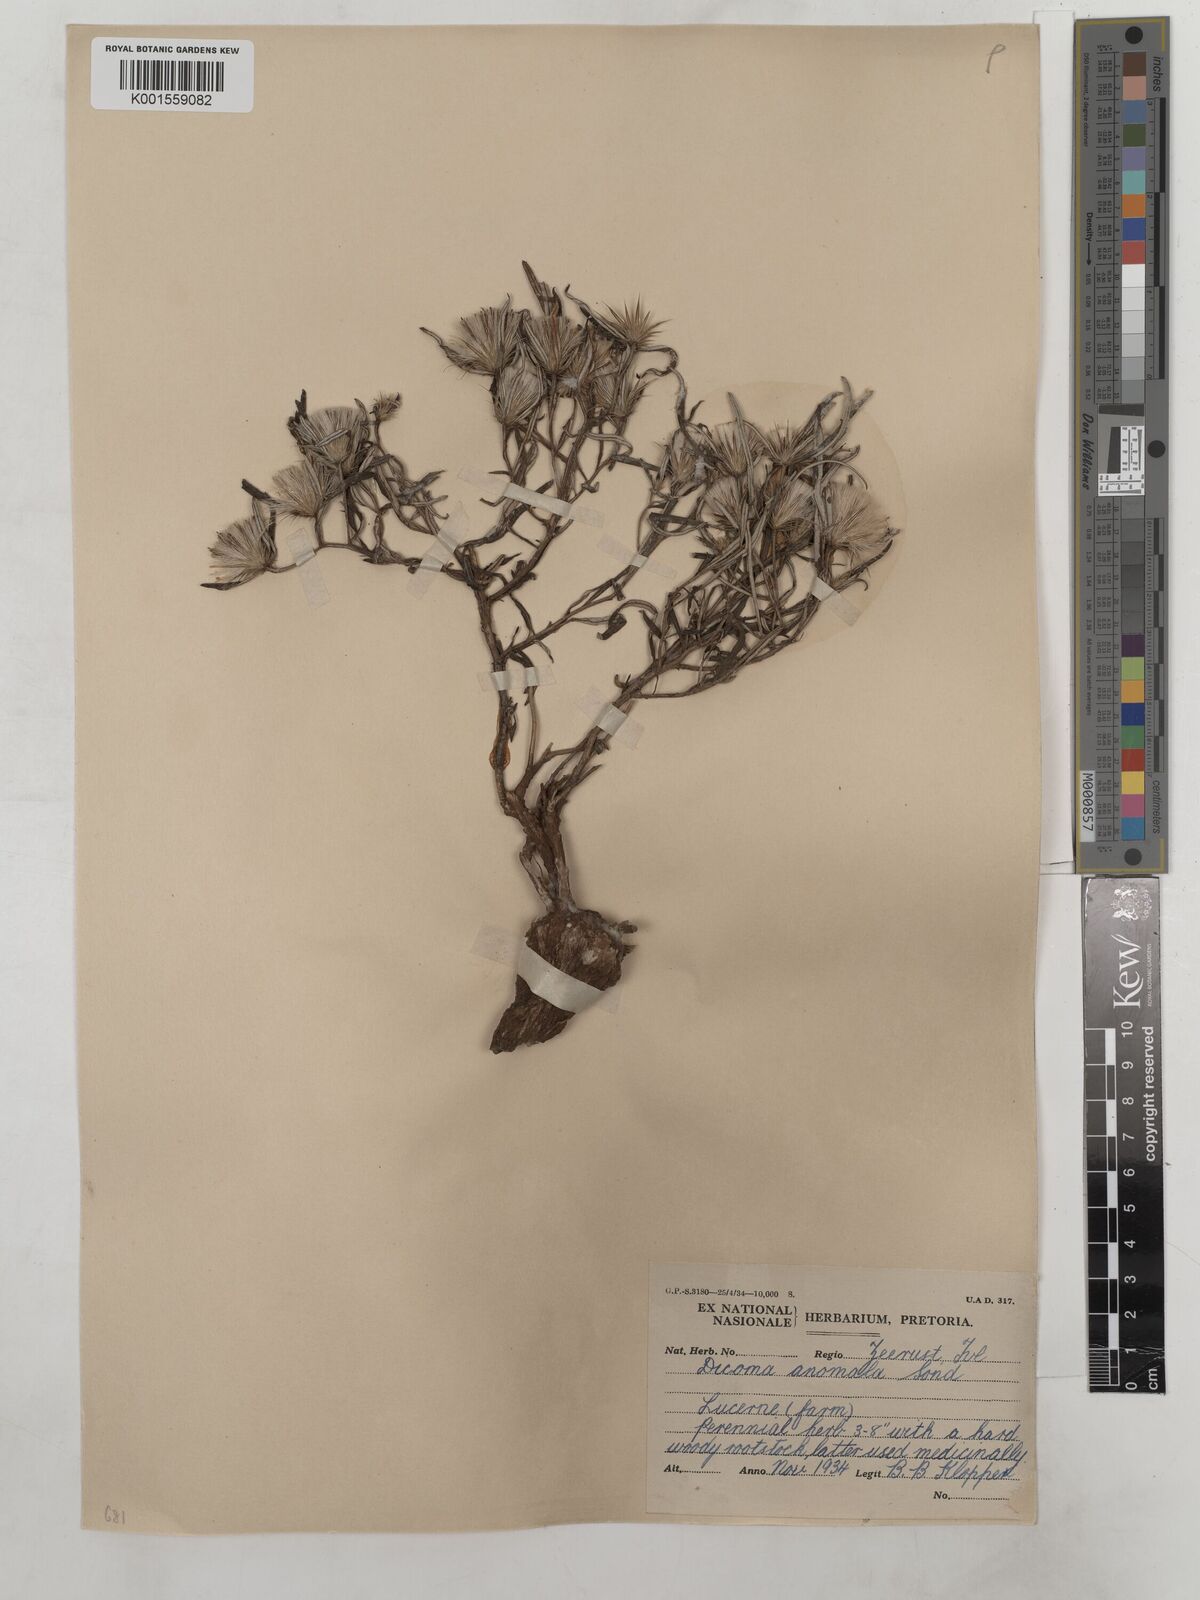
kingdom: Plantae
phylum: Tracheophyta
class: Magnoliopsida
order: Asterales
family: Asteraceae
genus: Dicoma
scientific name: Dicoma anomala
